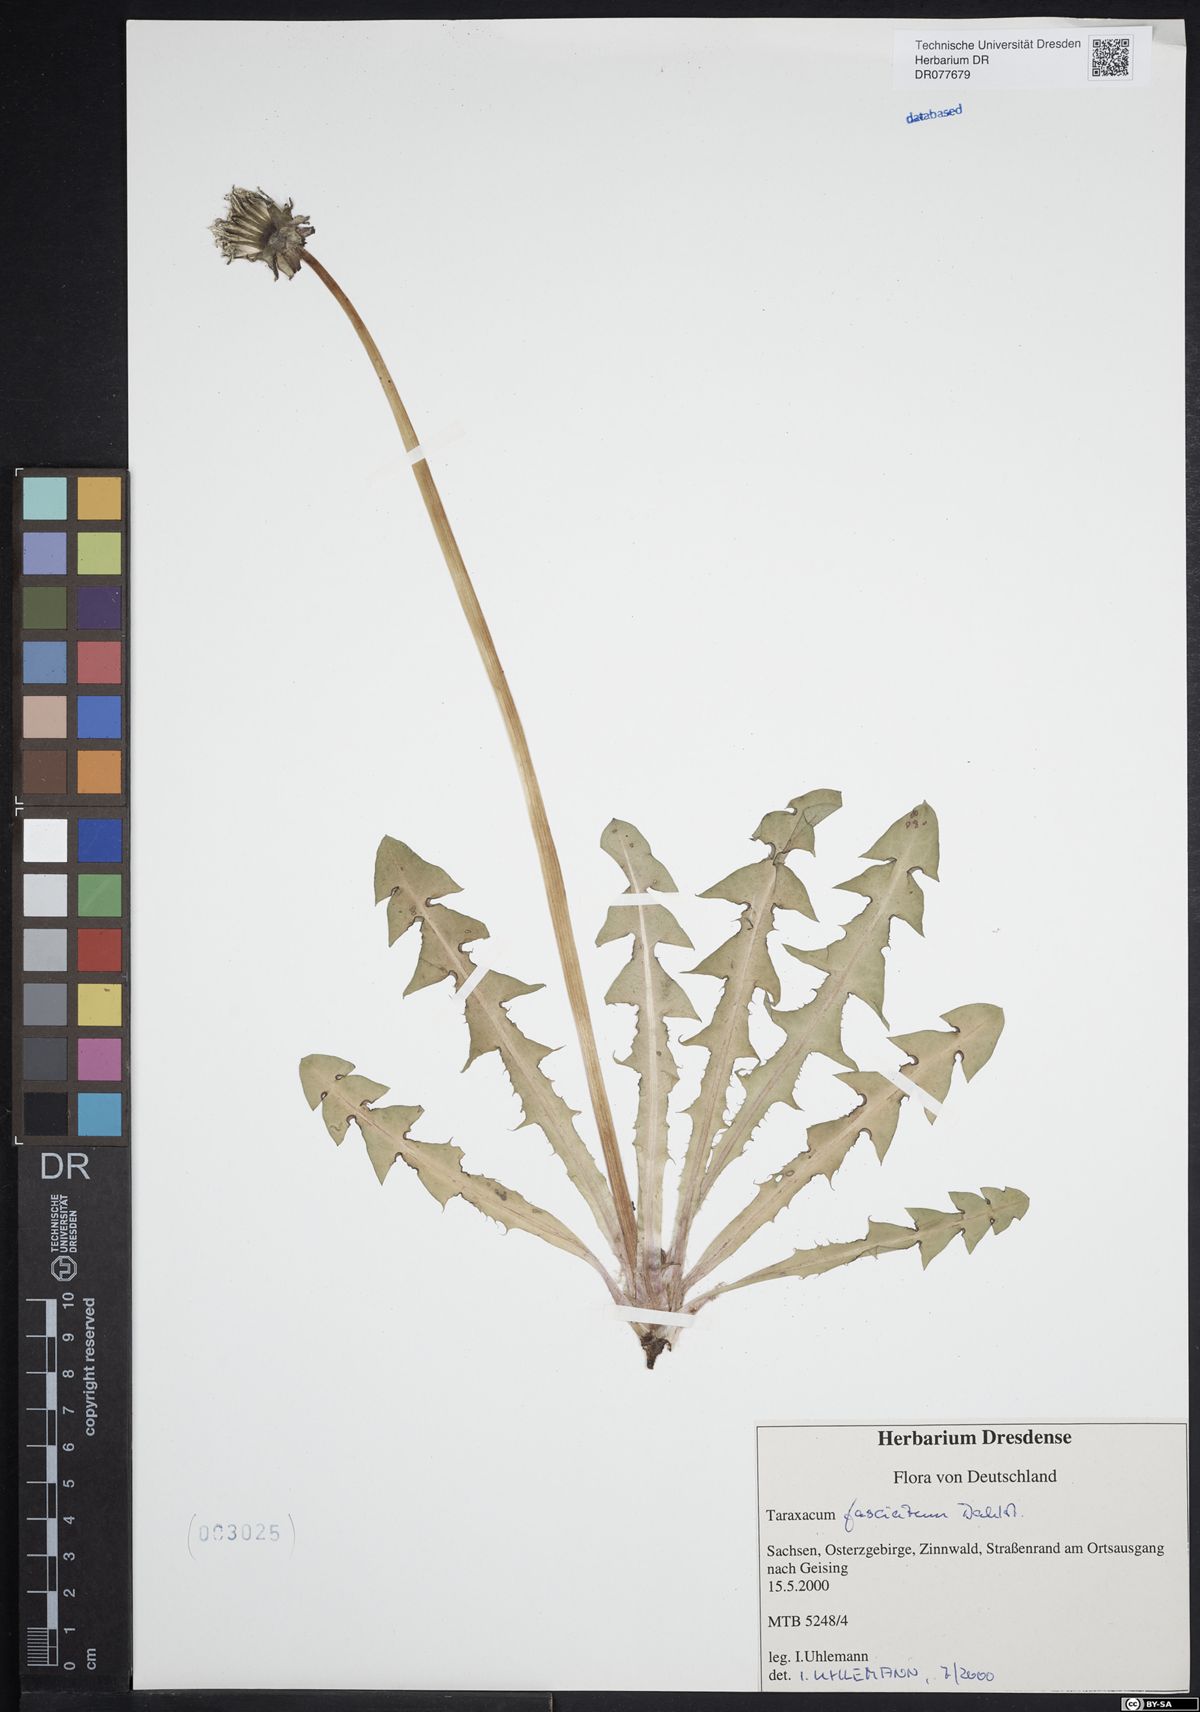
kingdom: Plantae
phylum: Tracheophyta
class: Magnoliopsida
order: Asterales
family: Asteraceae
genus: Taraxacum
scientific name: Taraxacum fasciatum
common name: Dense-bracted dandelion
